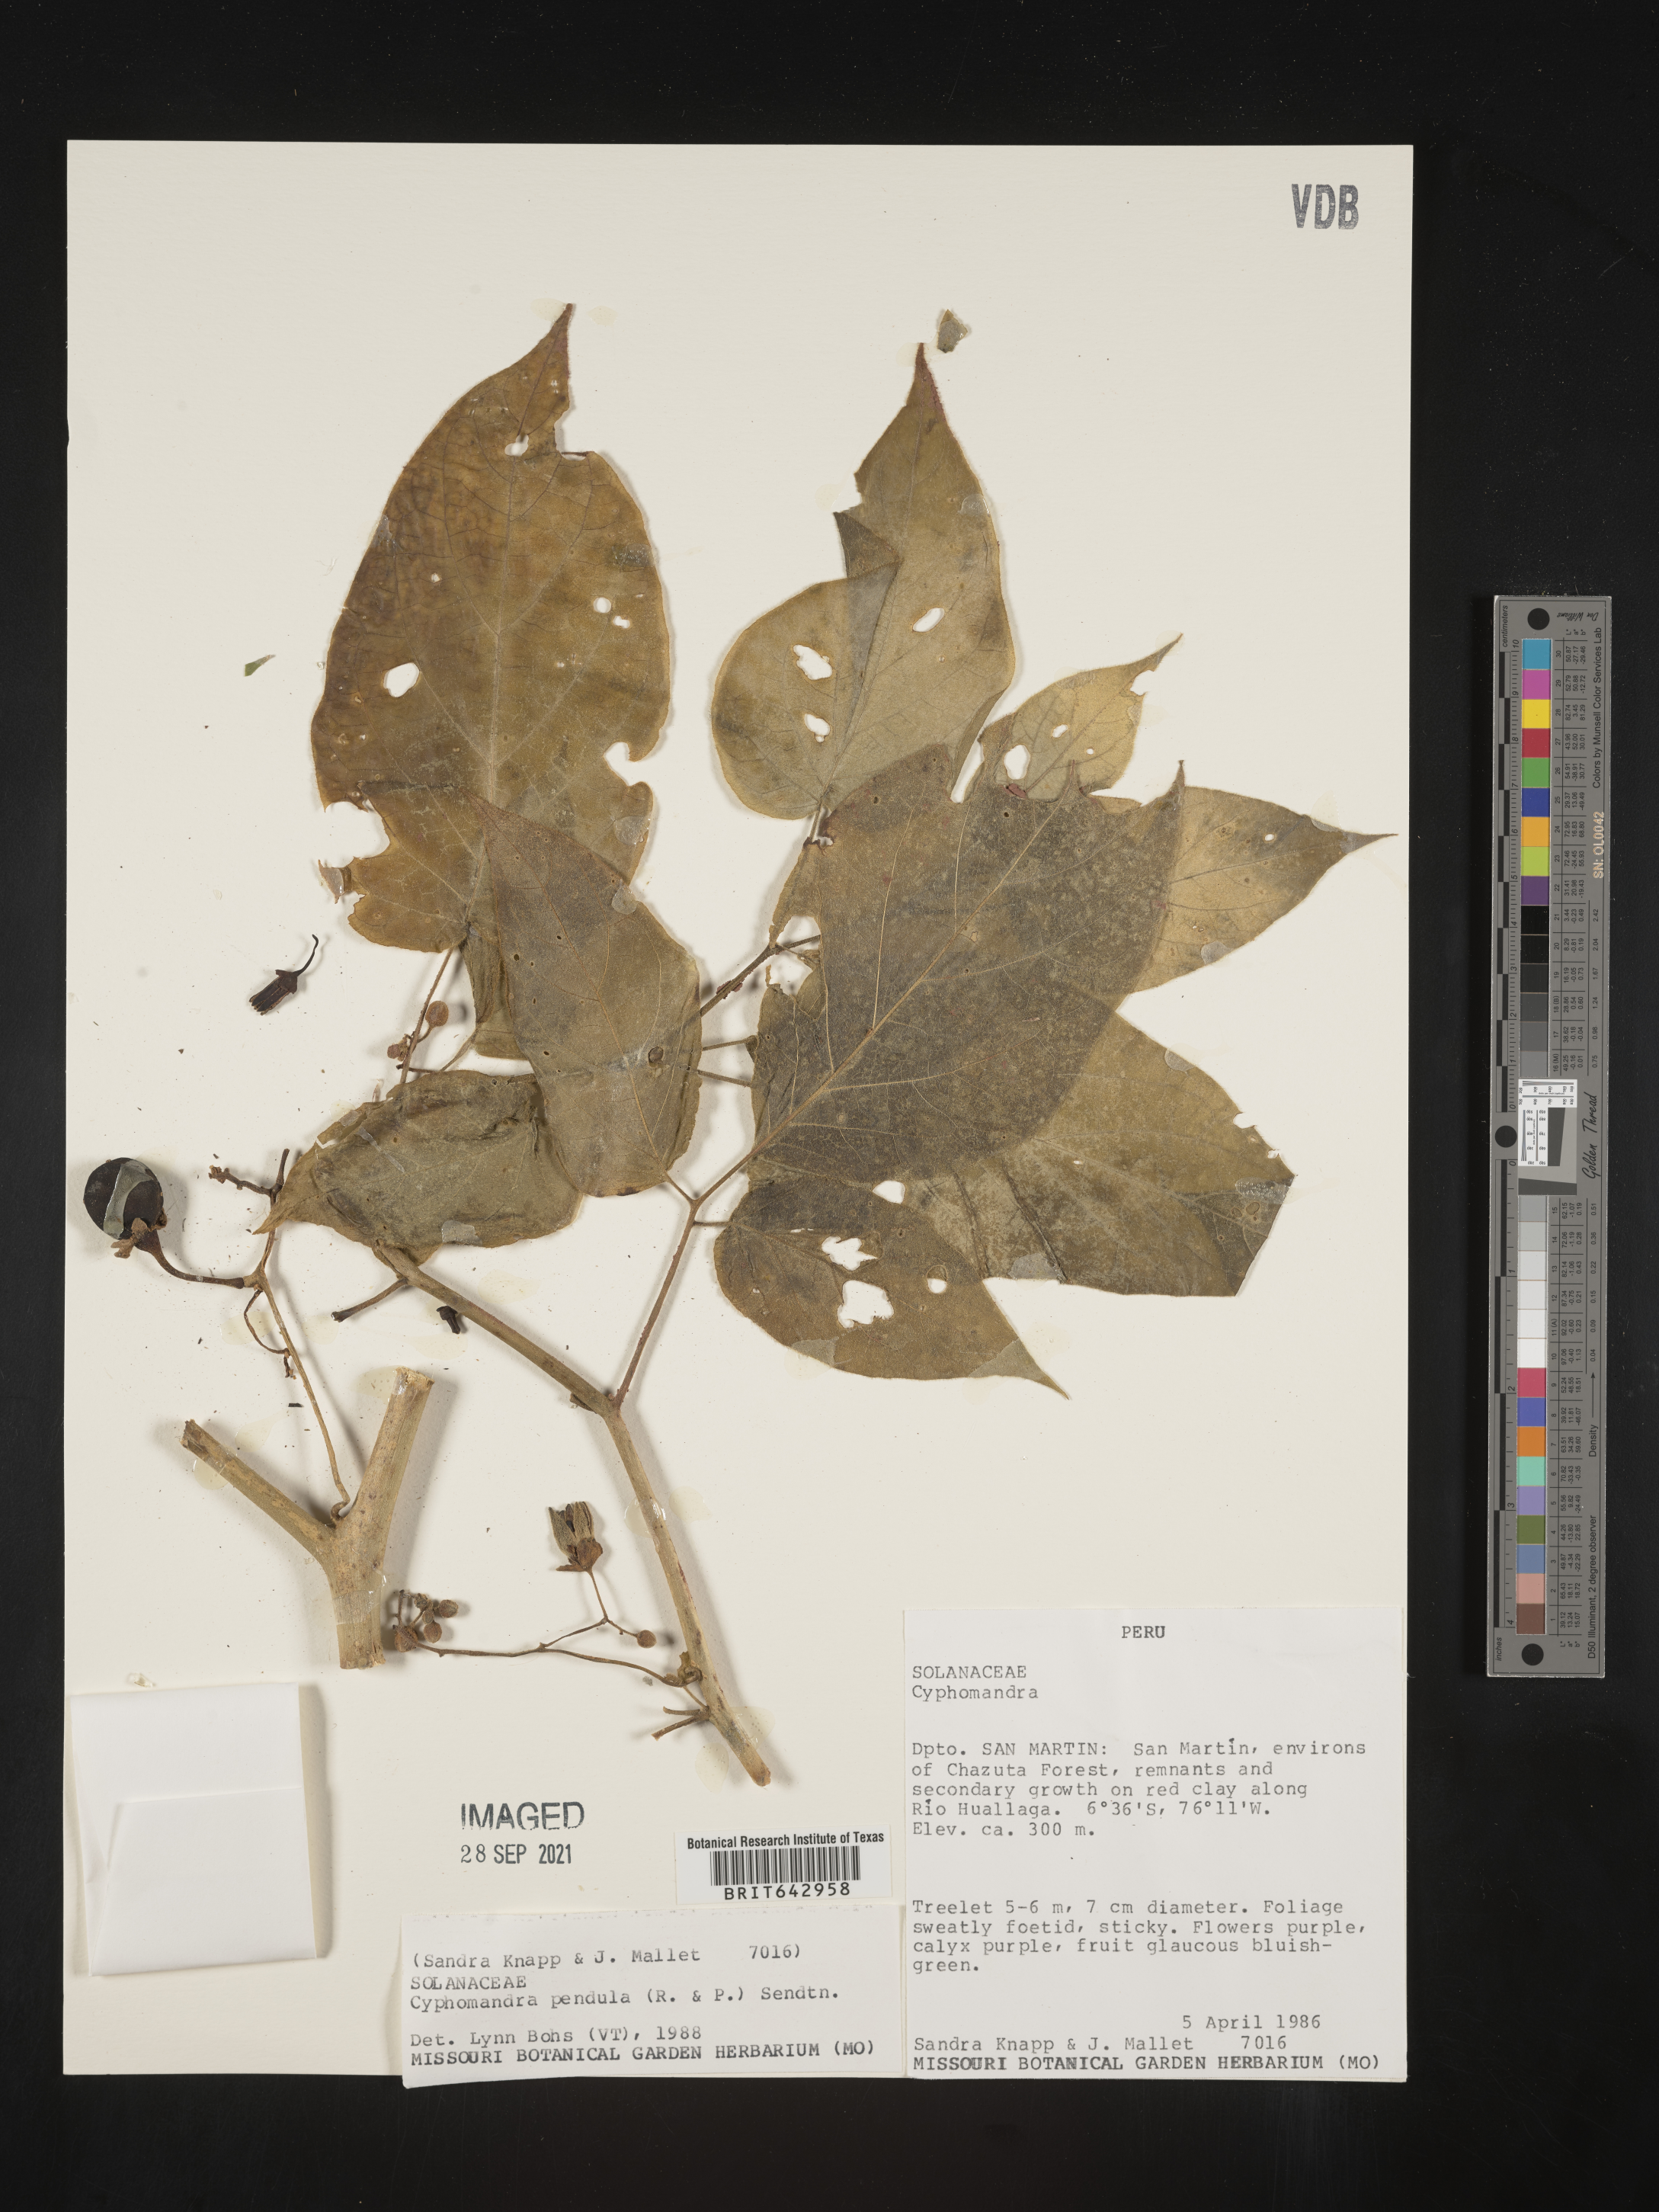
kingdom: Plantae
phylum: Tracheophyta
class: Magnoliopsida
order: Solanales
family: Solanaceae
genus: Solanum
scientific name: Solanum
